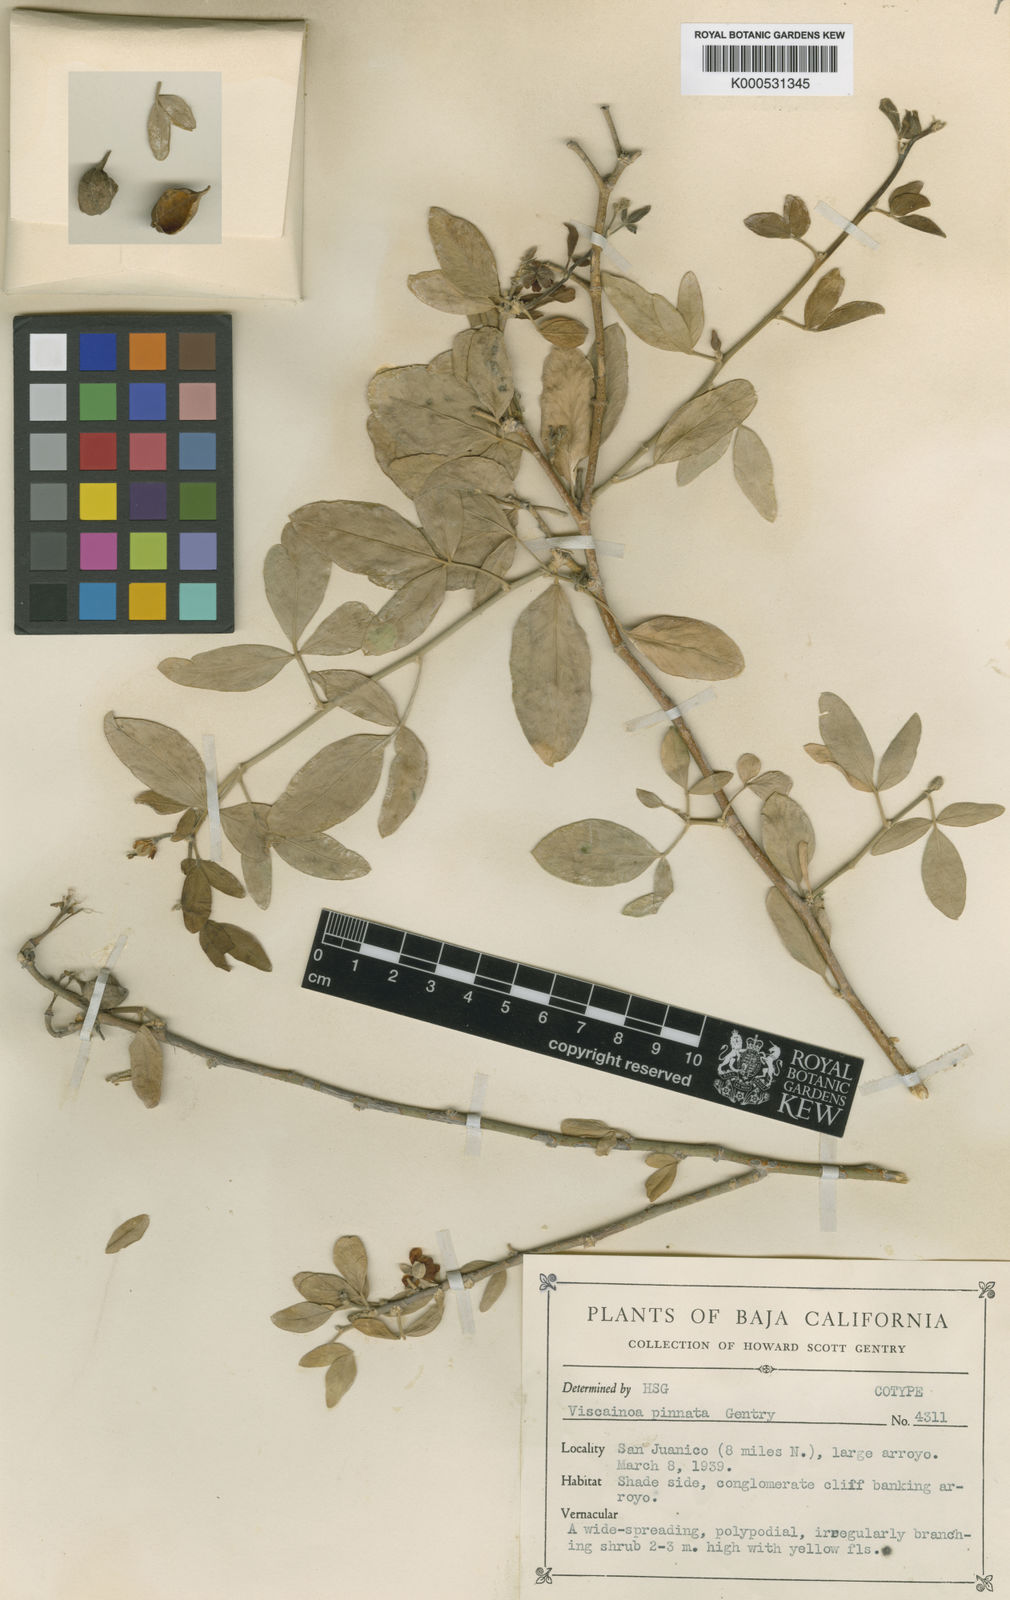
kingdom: Plantae
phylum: Tracheophyta
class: Magnoliopsida
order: Zygophyllales
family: Zygophyllaceae
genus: Viscainoa
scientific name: Viscainoa geniculata
